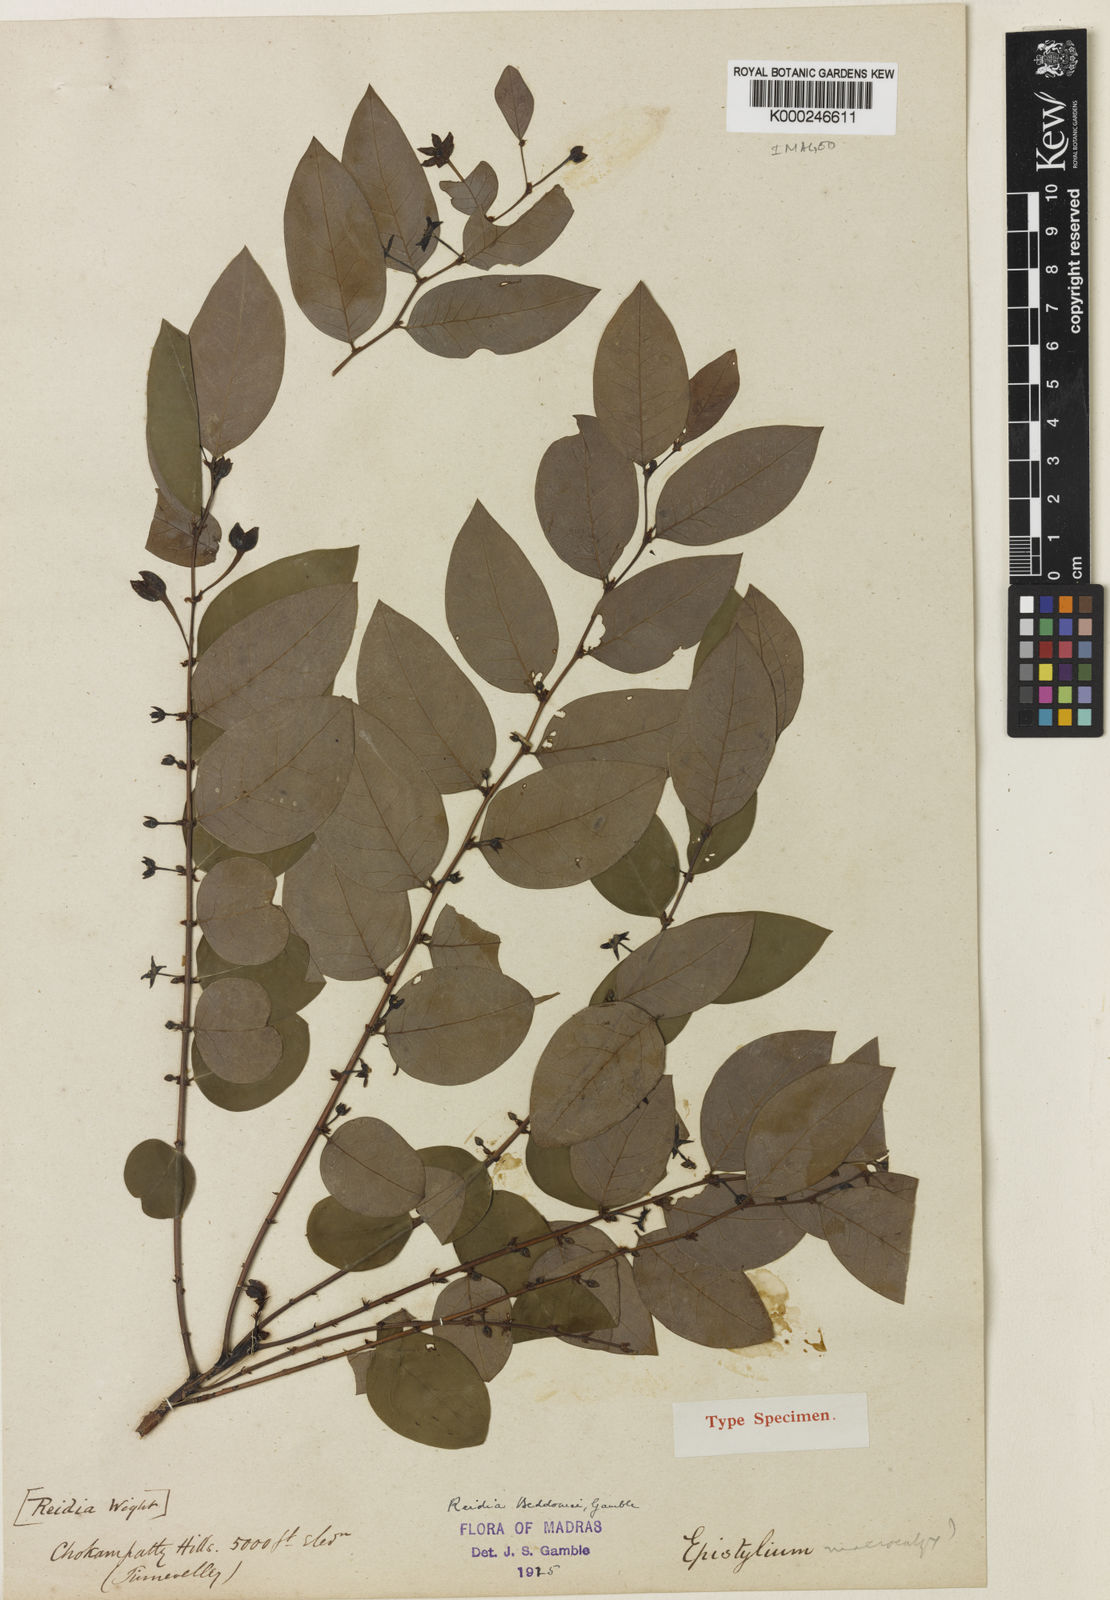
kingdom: Plantae
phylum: Tracheophyta
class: Magnoliopsida
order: Malpighiales
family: Phyllanthaceae
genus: Phyllanthus
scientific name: Phyllanthus beddomei
